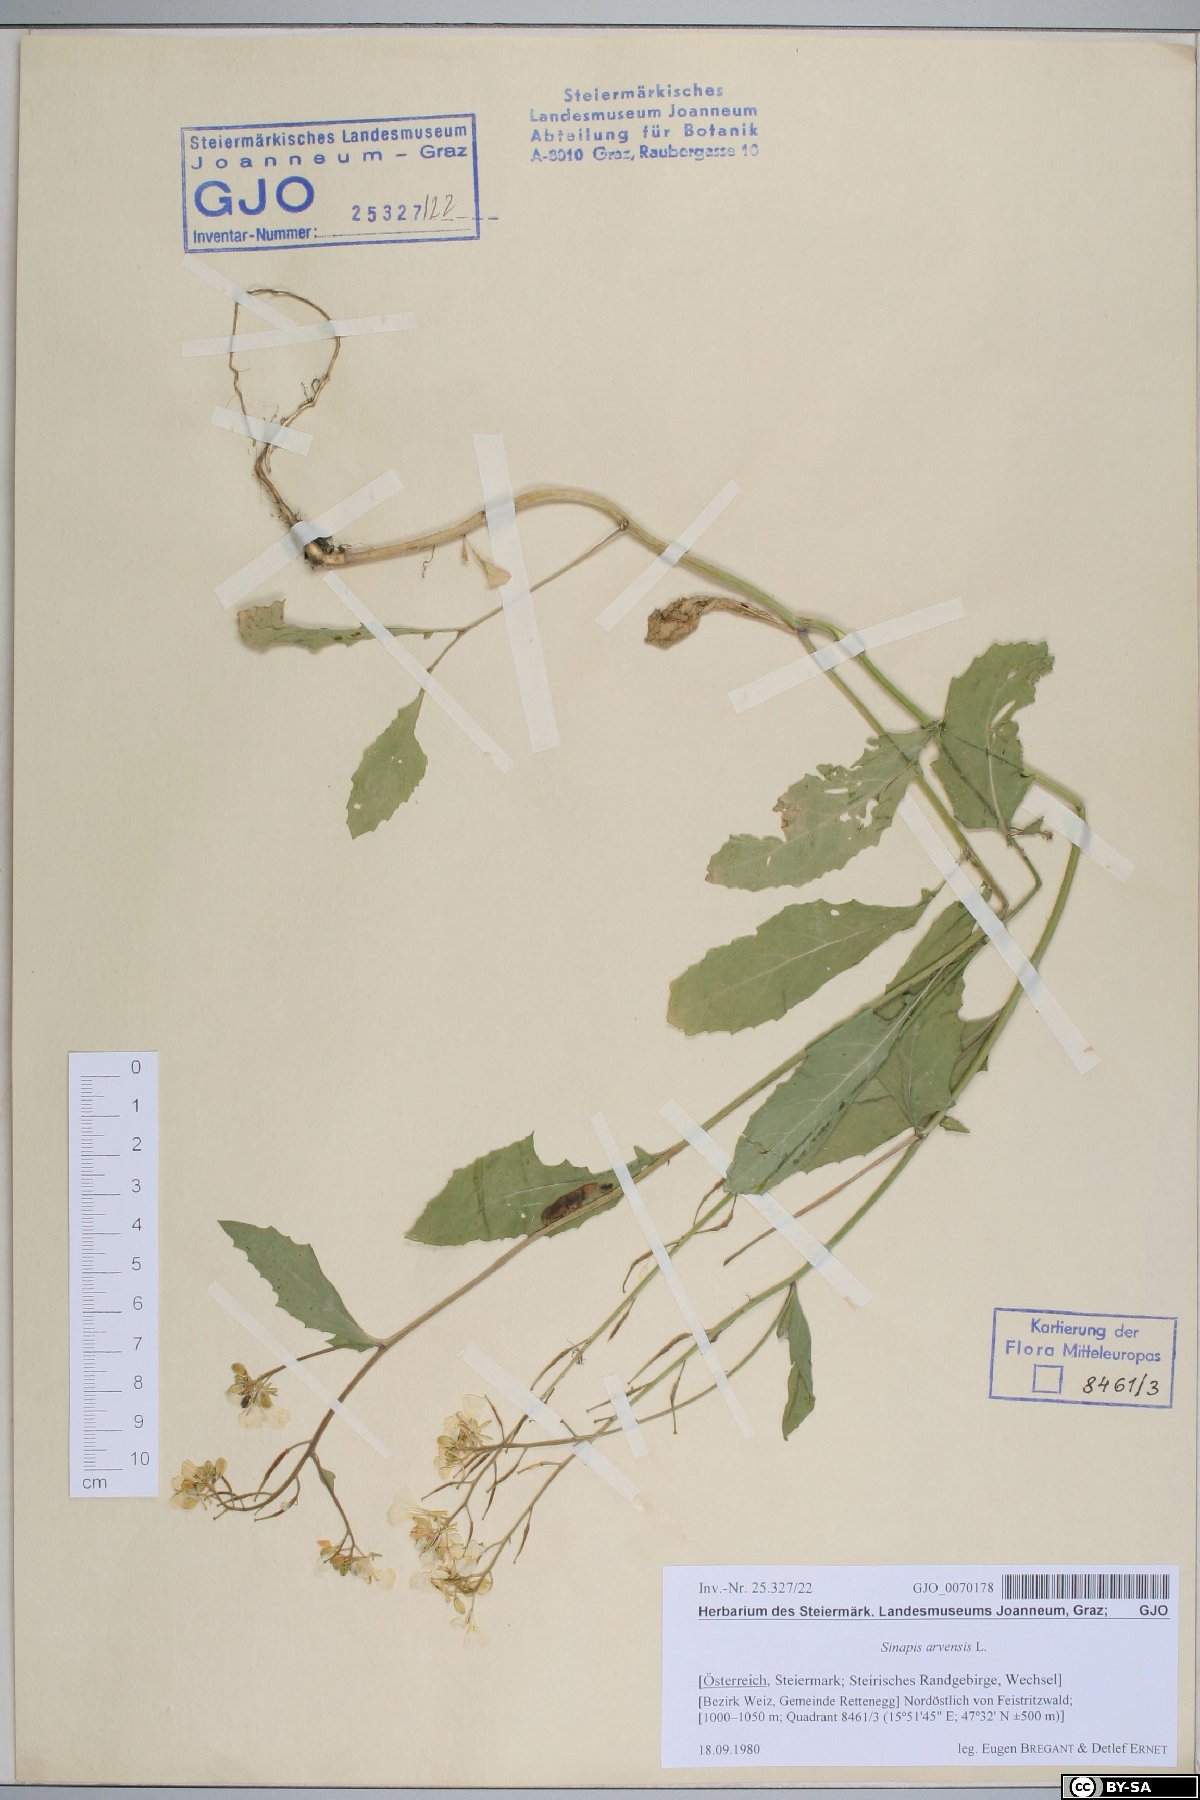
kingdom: Plantae
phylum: Tracheophyta
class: Magnoliopsida
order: Brassicales
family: Brassicaceae
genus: Sinapis
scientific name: Sinapis arvensis
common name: Charlock
